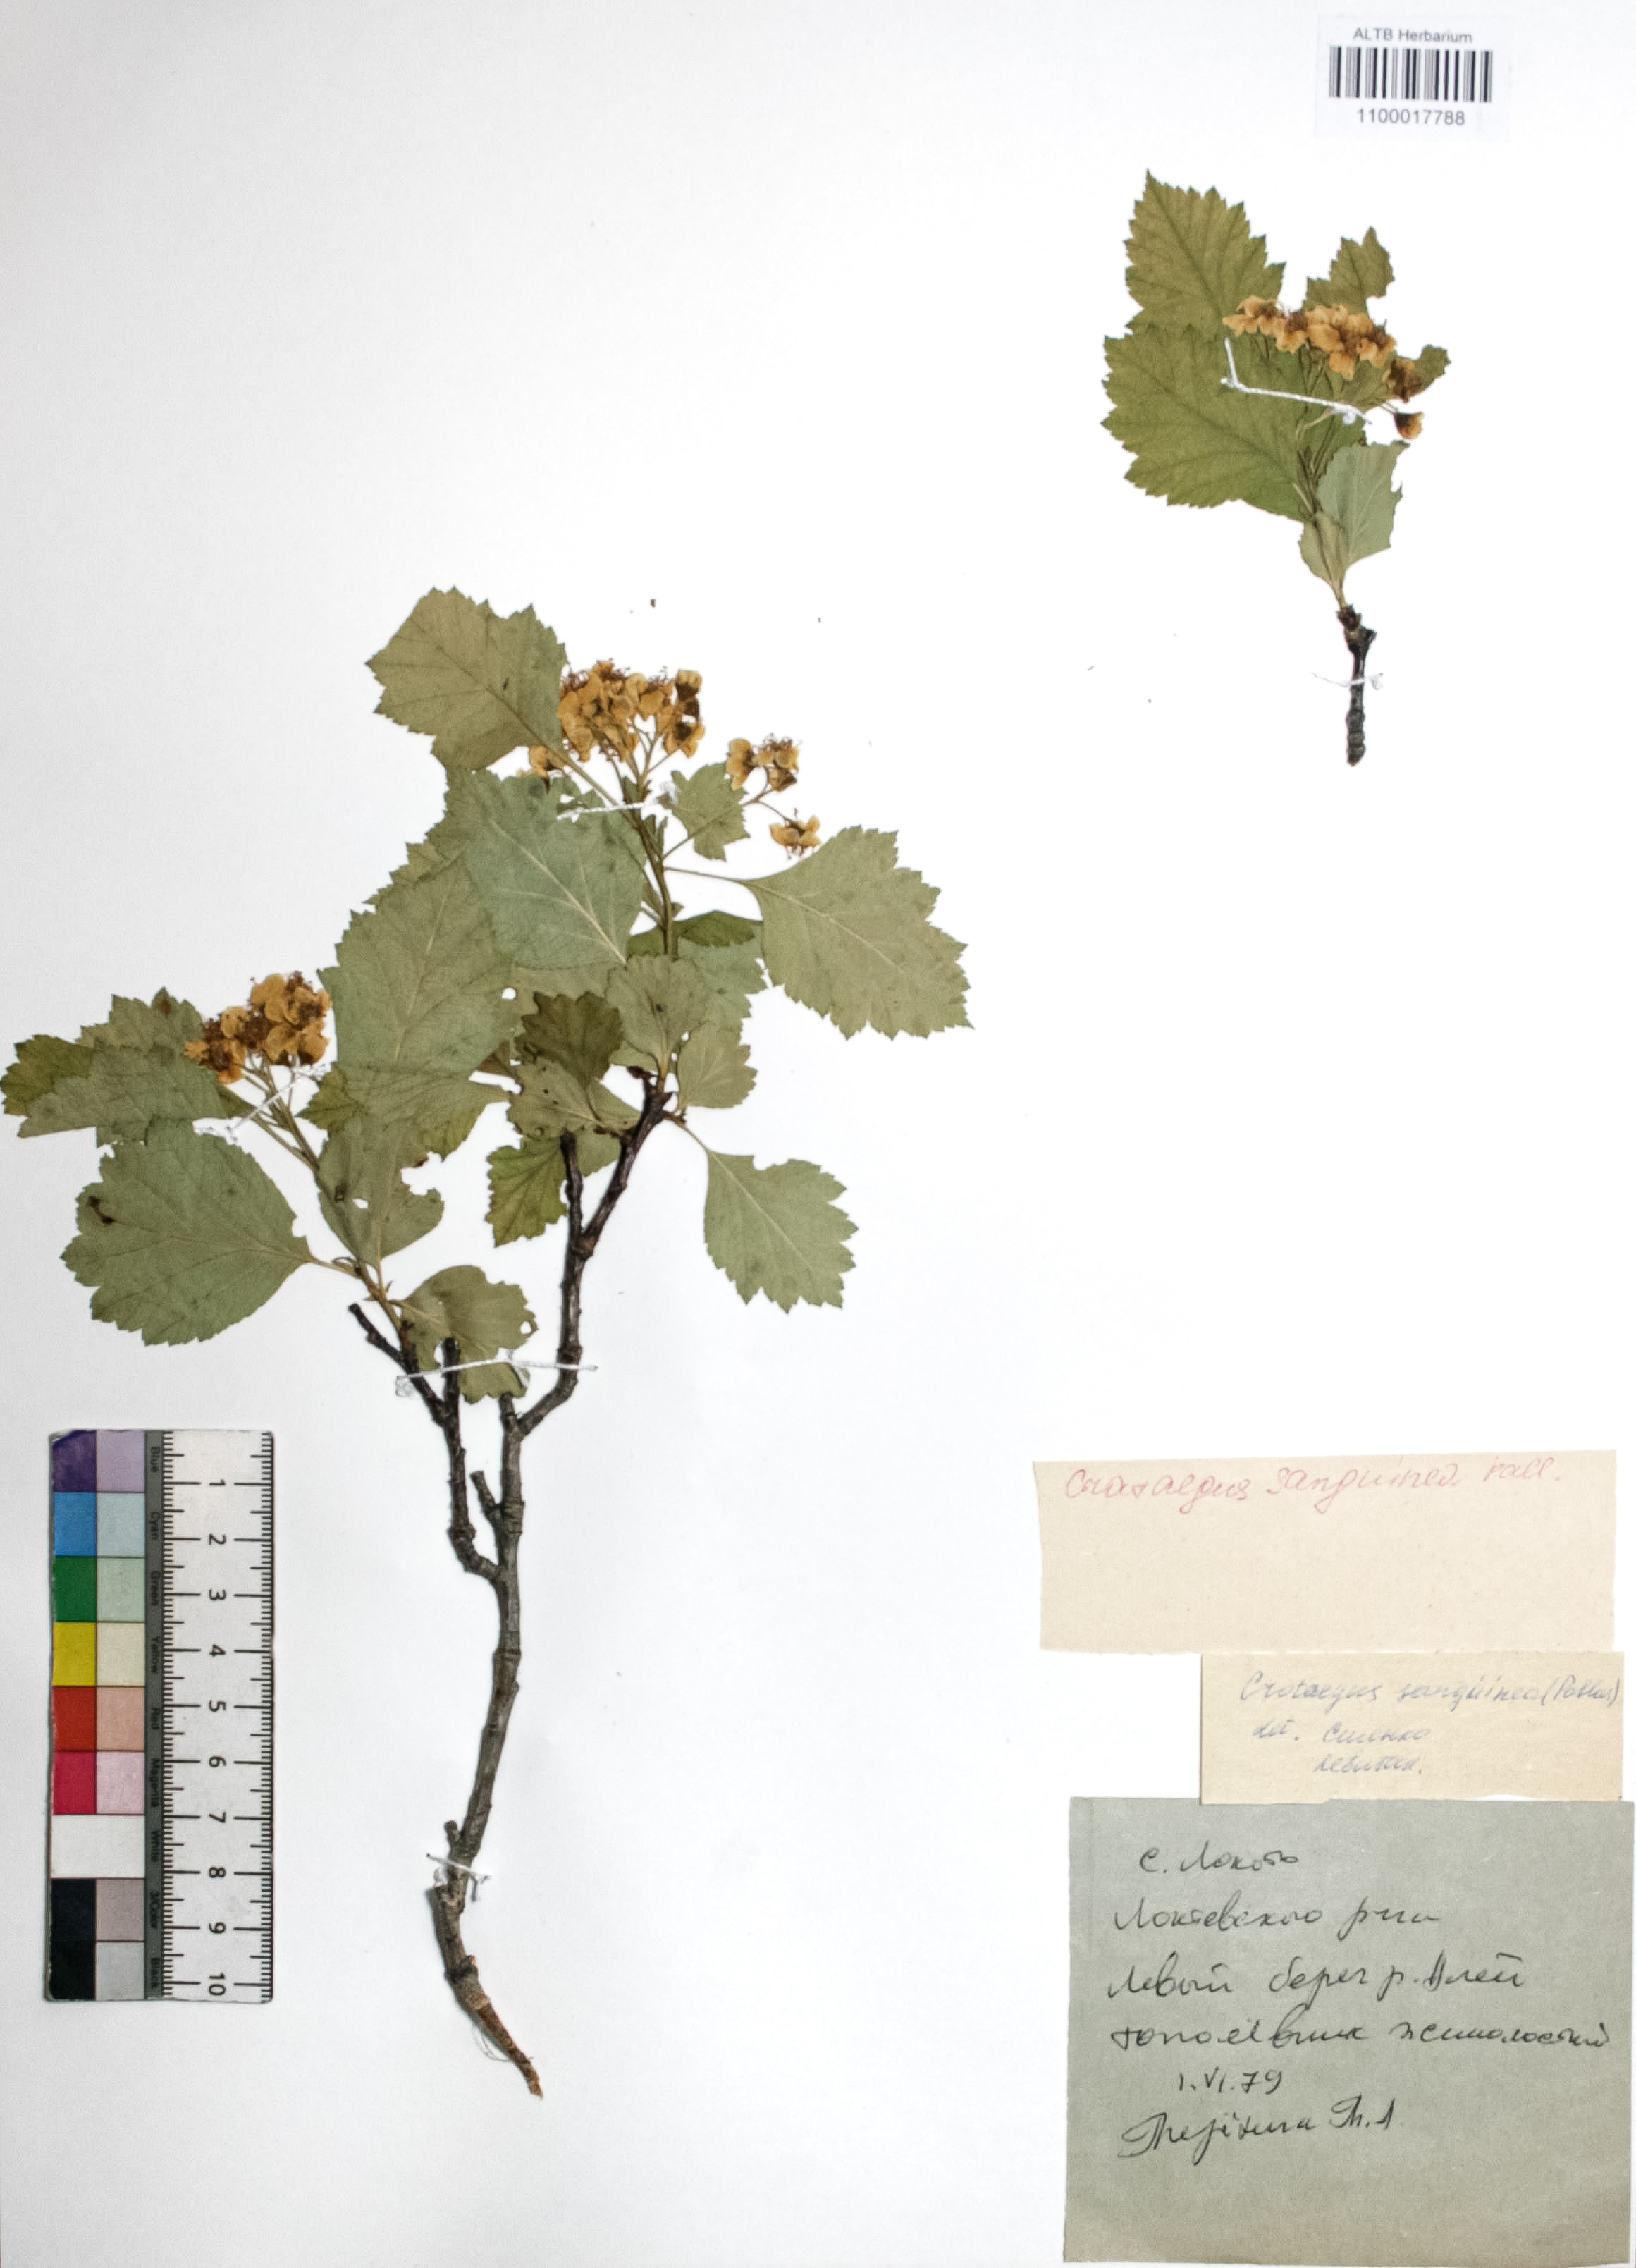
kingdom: Plantae
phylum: Tracheophyta
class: Magnoliopsida
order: Rosales
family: Rosaceae
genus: Crataegus
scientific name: Crataegus sanguinea
